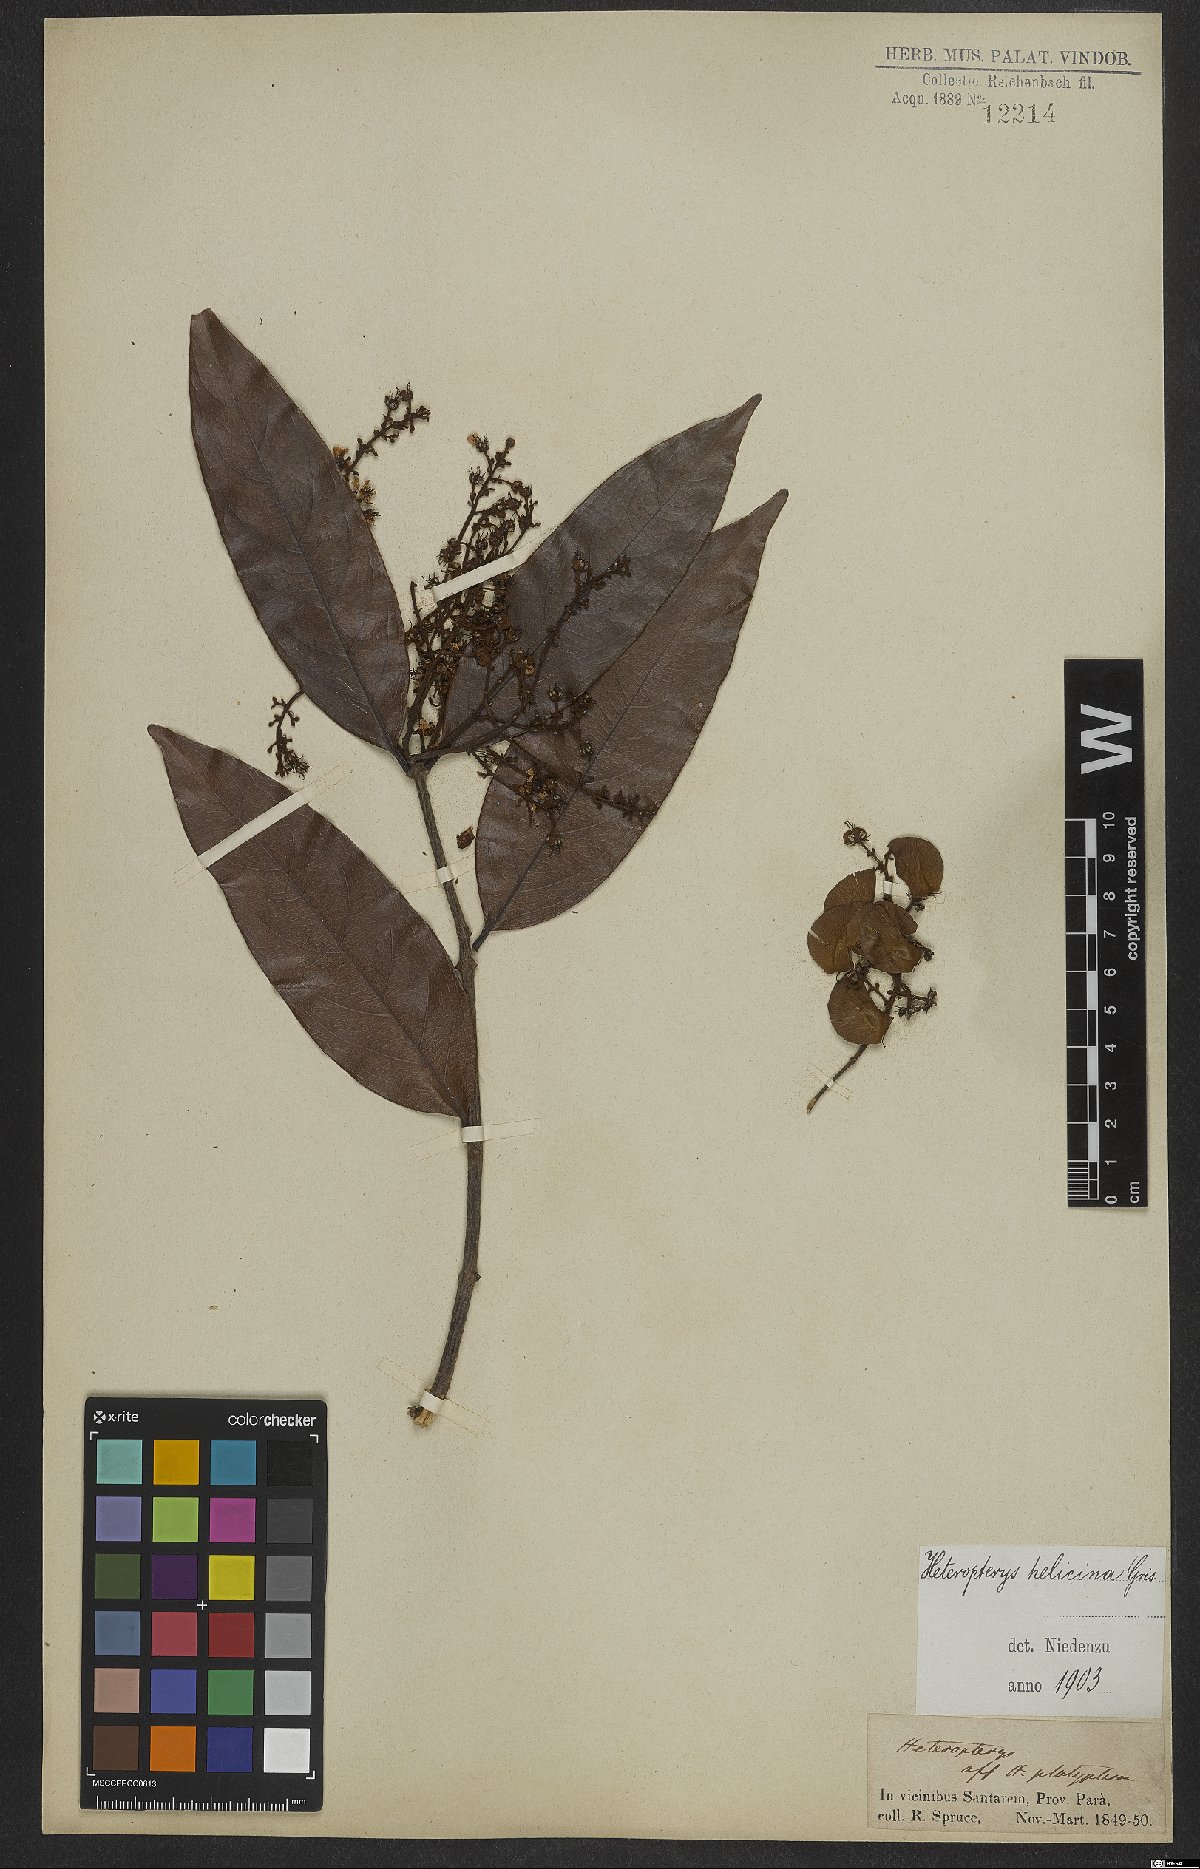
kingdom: Plantae
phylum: Tracheophyta
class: Magnoliopsida
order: Malpighiales
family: Malpighiaceae
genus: Heteropterys
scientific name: Heteropterys orinocensis
